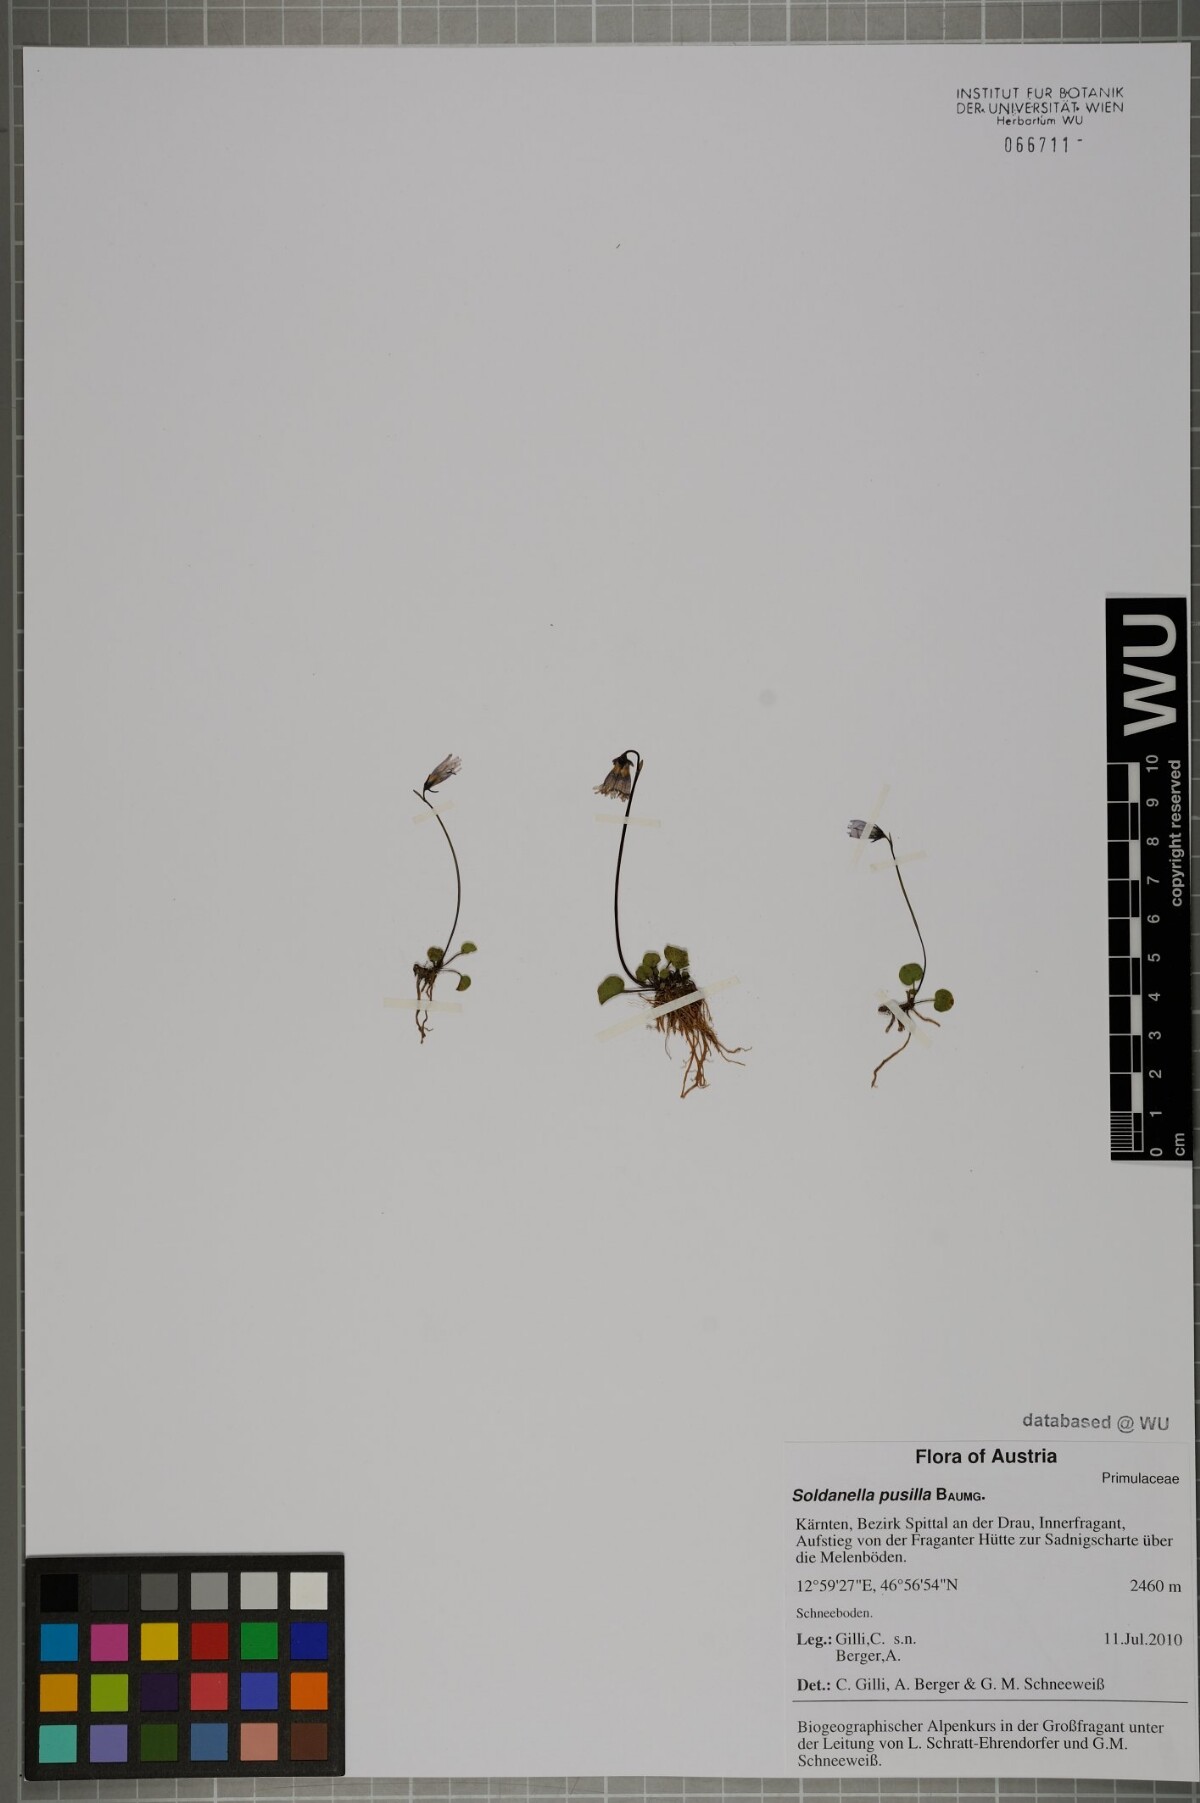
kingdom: Plantae
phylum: Tracheophyta
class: Magnoliopsida
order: Ericales
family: Primulaceae
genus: Soldanella
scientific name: Soldanella pusilla
